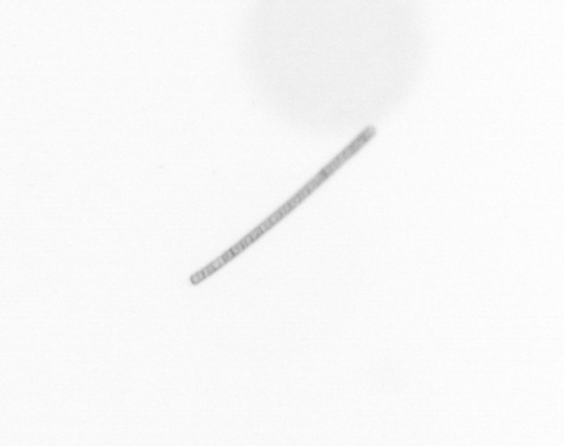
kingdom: Chromista
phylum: Ochrophyta
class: Bacillariophyceae
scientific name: Bacillariophyceae
